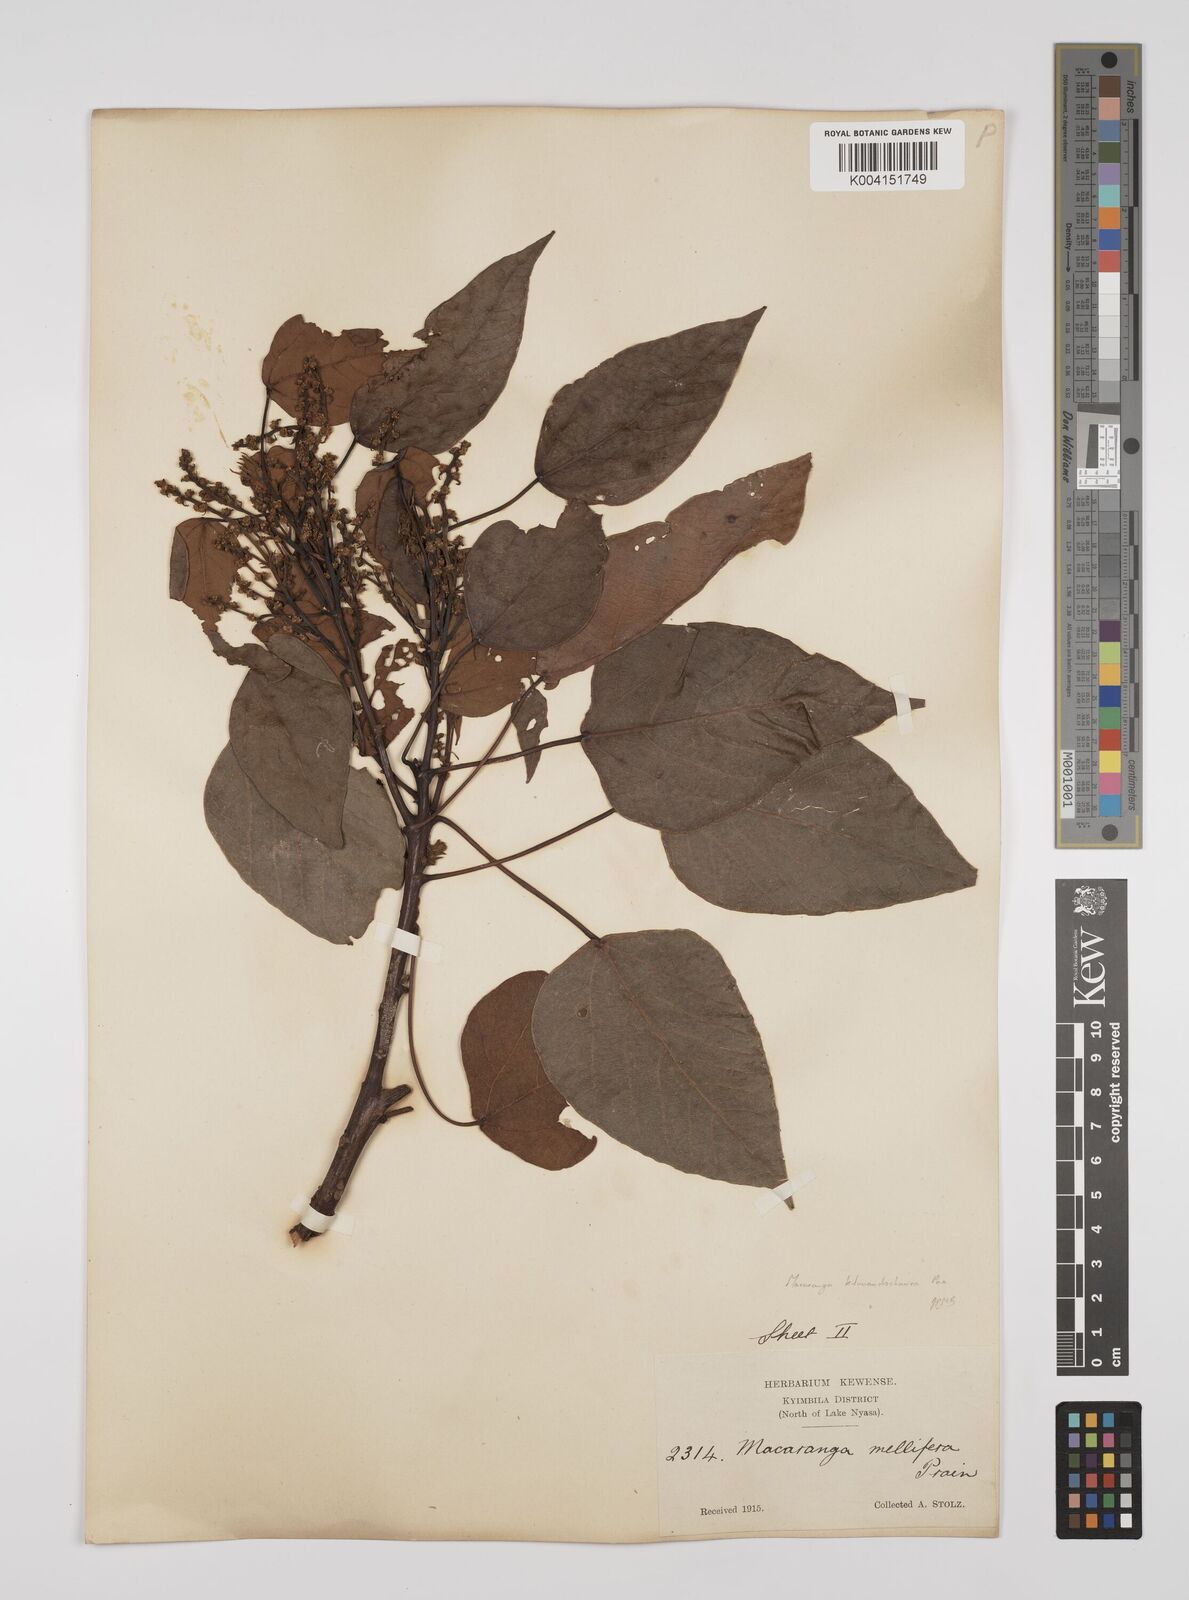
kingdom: Plantae
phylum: Tracheophyta
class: Magnoliopsida
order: Malpighiales
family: Euphorbiaceae
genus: Macaranga
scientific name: Macaranga kilimandscharica
